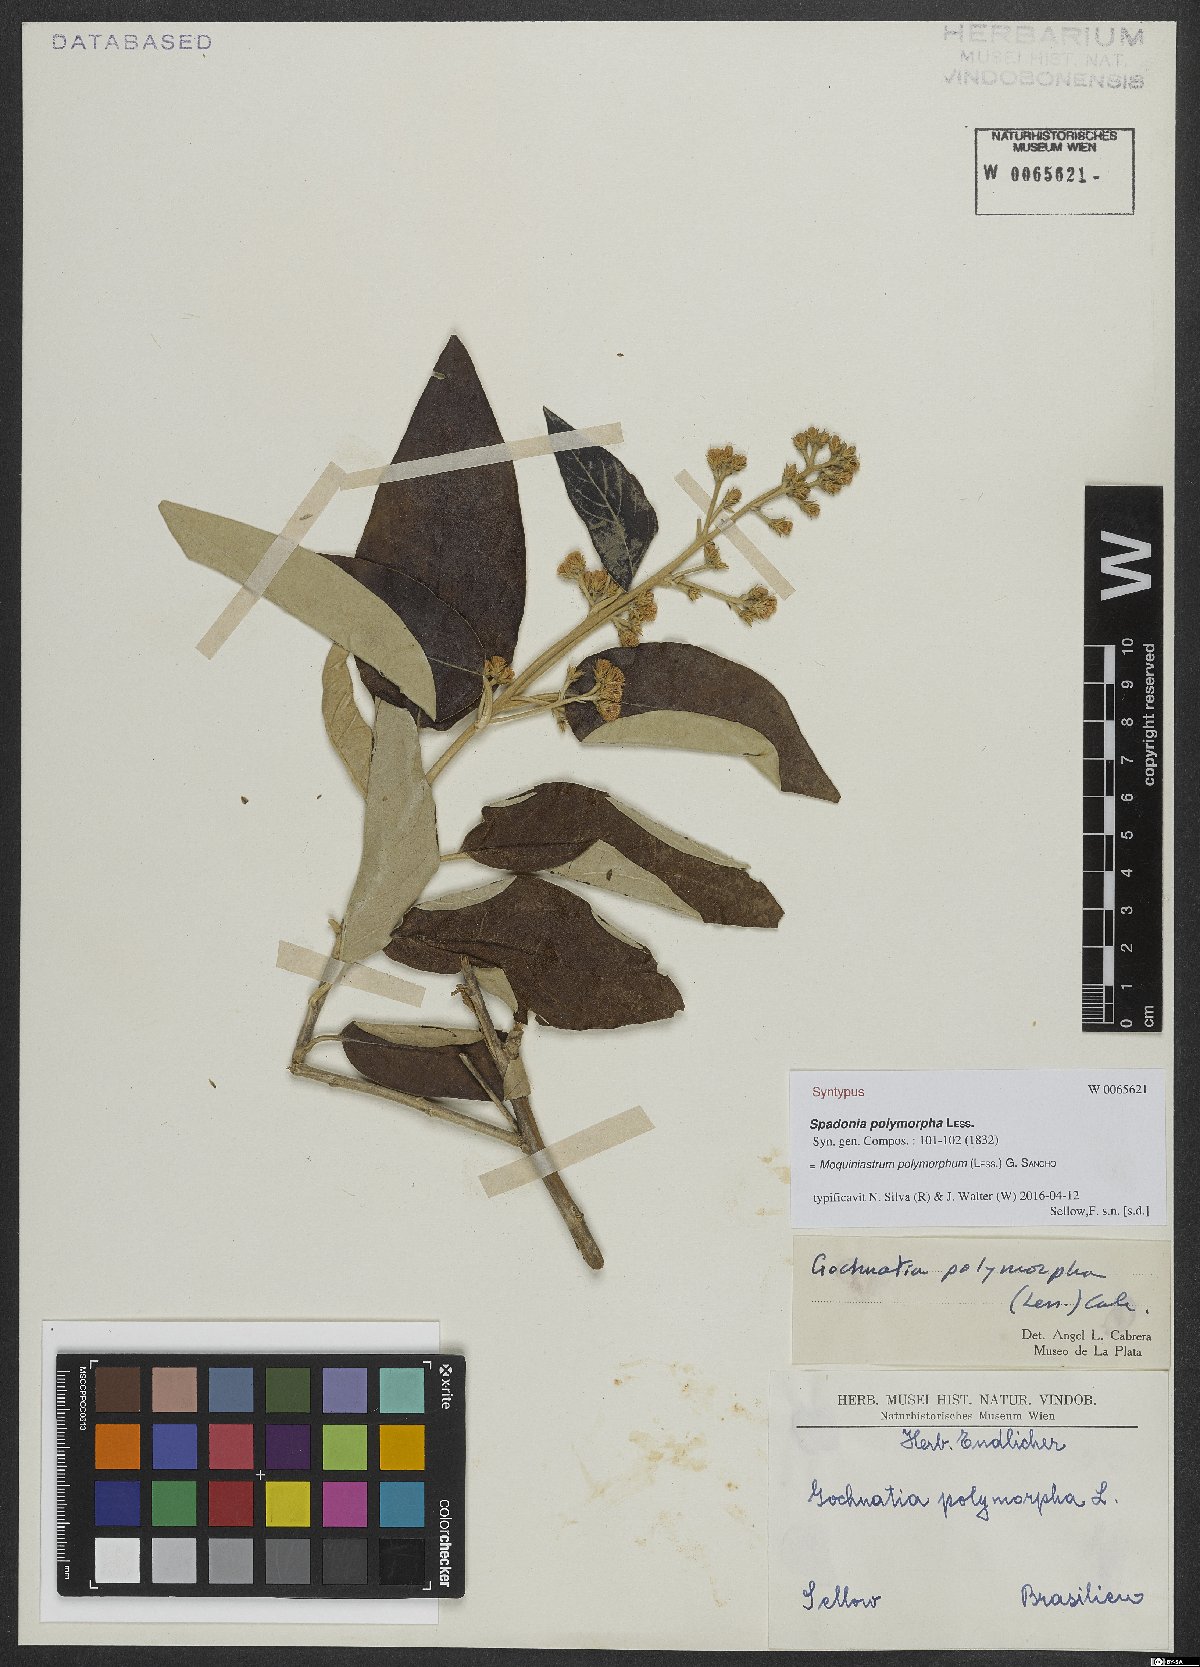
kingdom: Plantae
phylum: Tracheophyta
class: Magnoliopsida
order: Asterales
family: Asteraceae
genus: Moquiniastrum
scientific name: Moquiniastrum polymorphum
